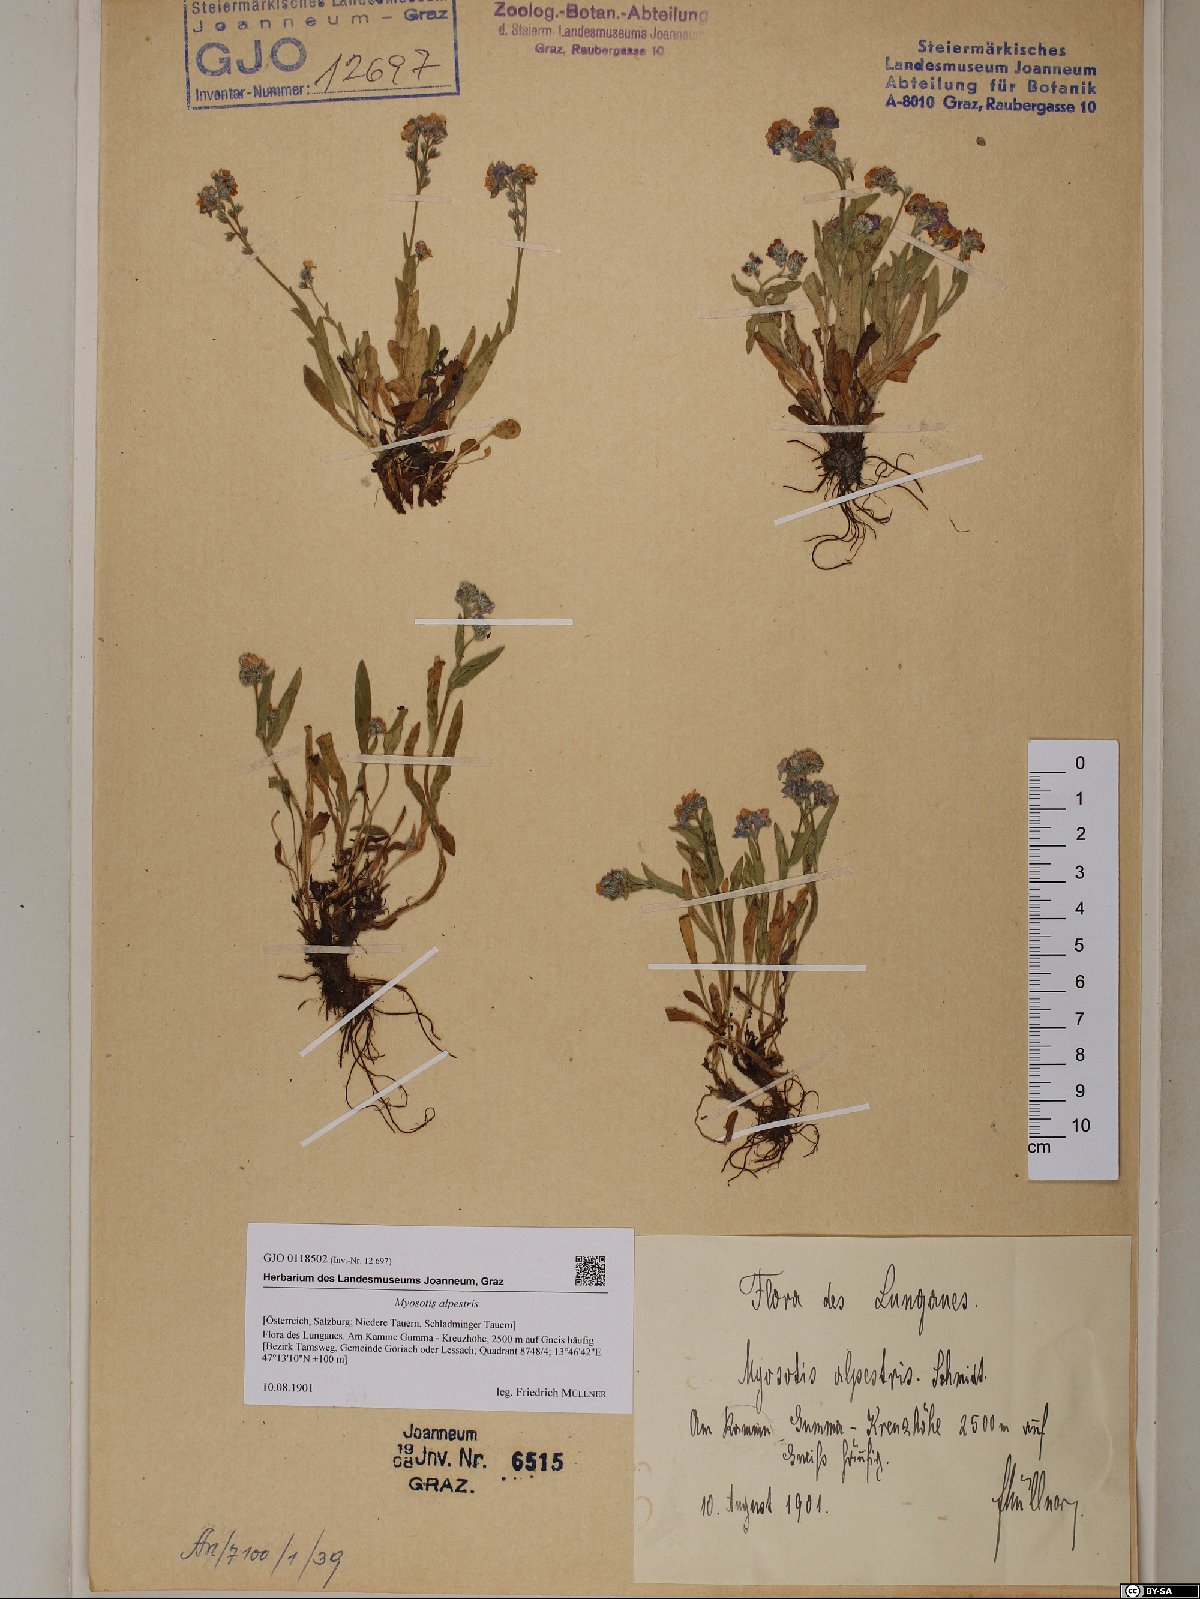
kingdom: Plantae
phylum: Tracheophyta
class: Magnoliopsida
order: Boraginales
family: Boraginaceae
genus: Myosotis
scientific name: Myosotis alpestris
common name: Alpine forget-me-not
